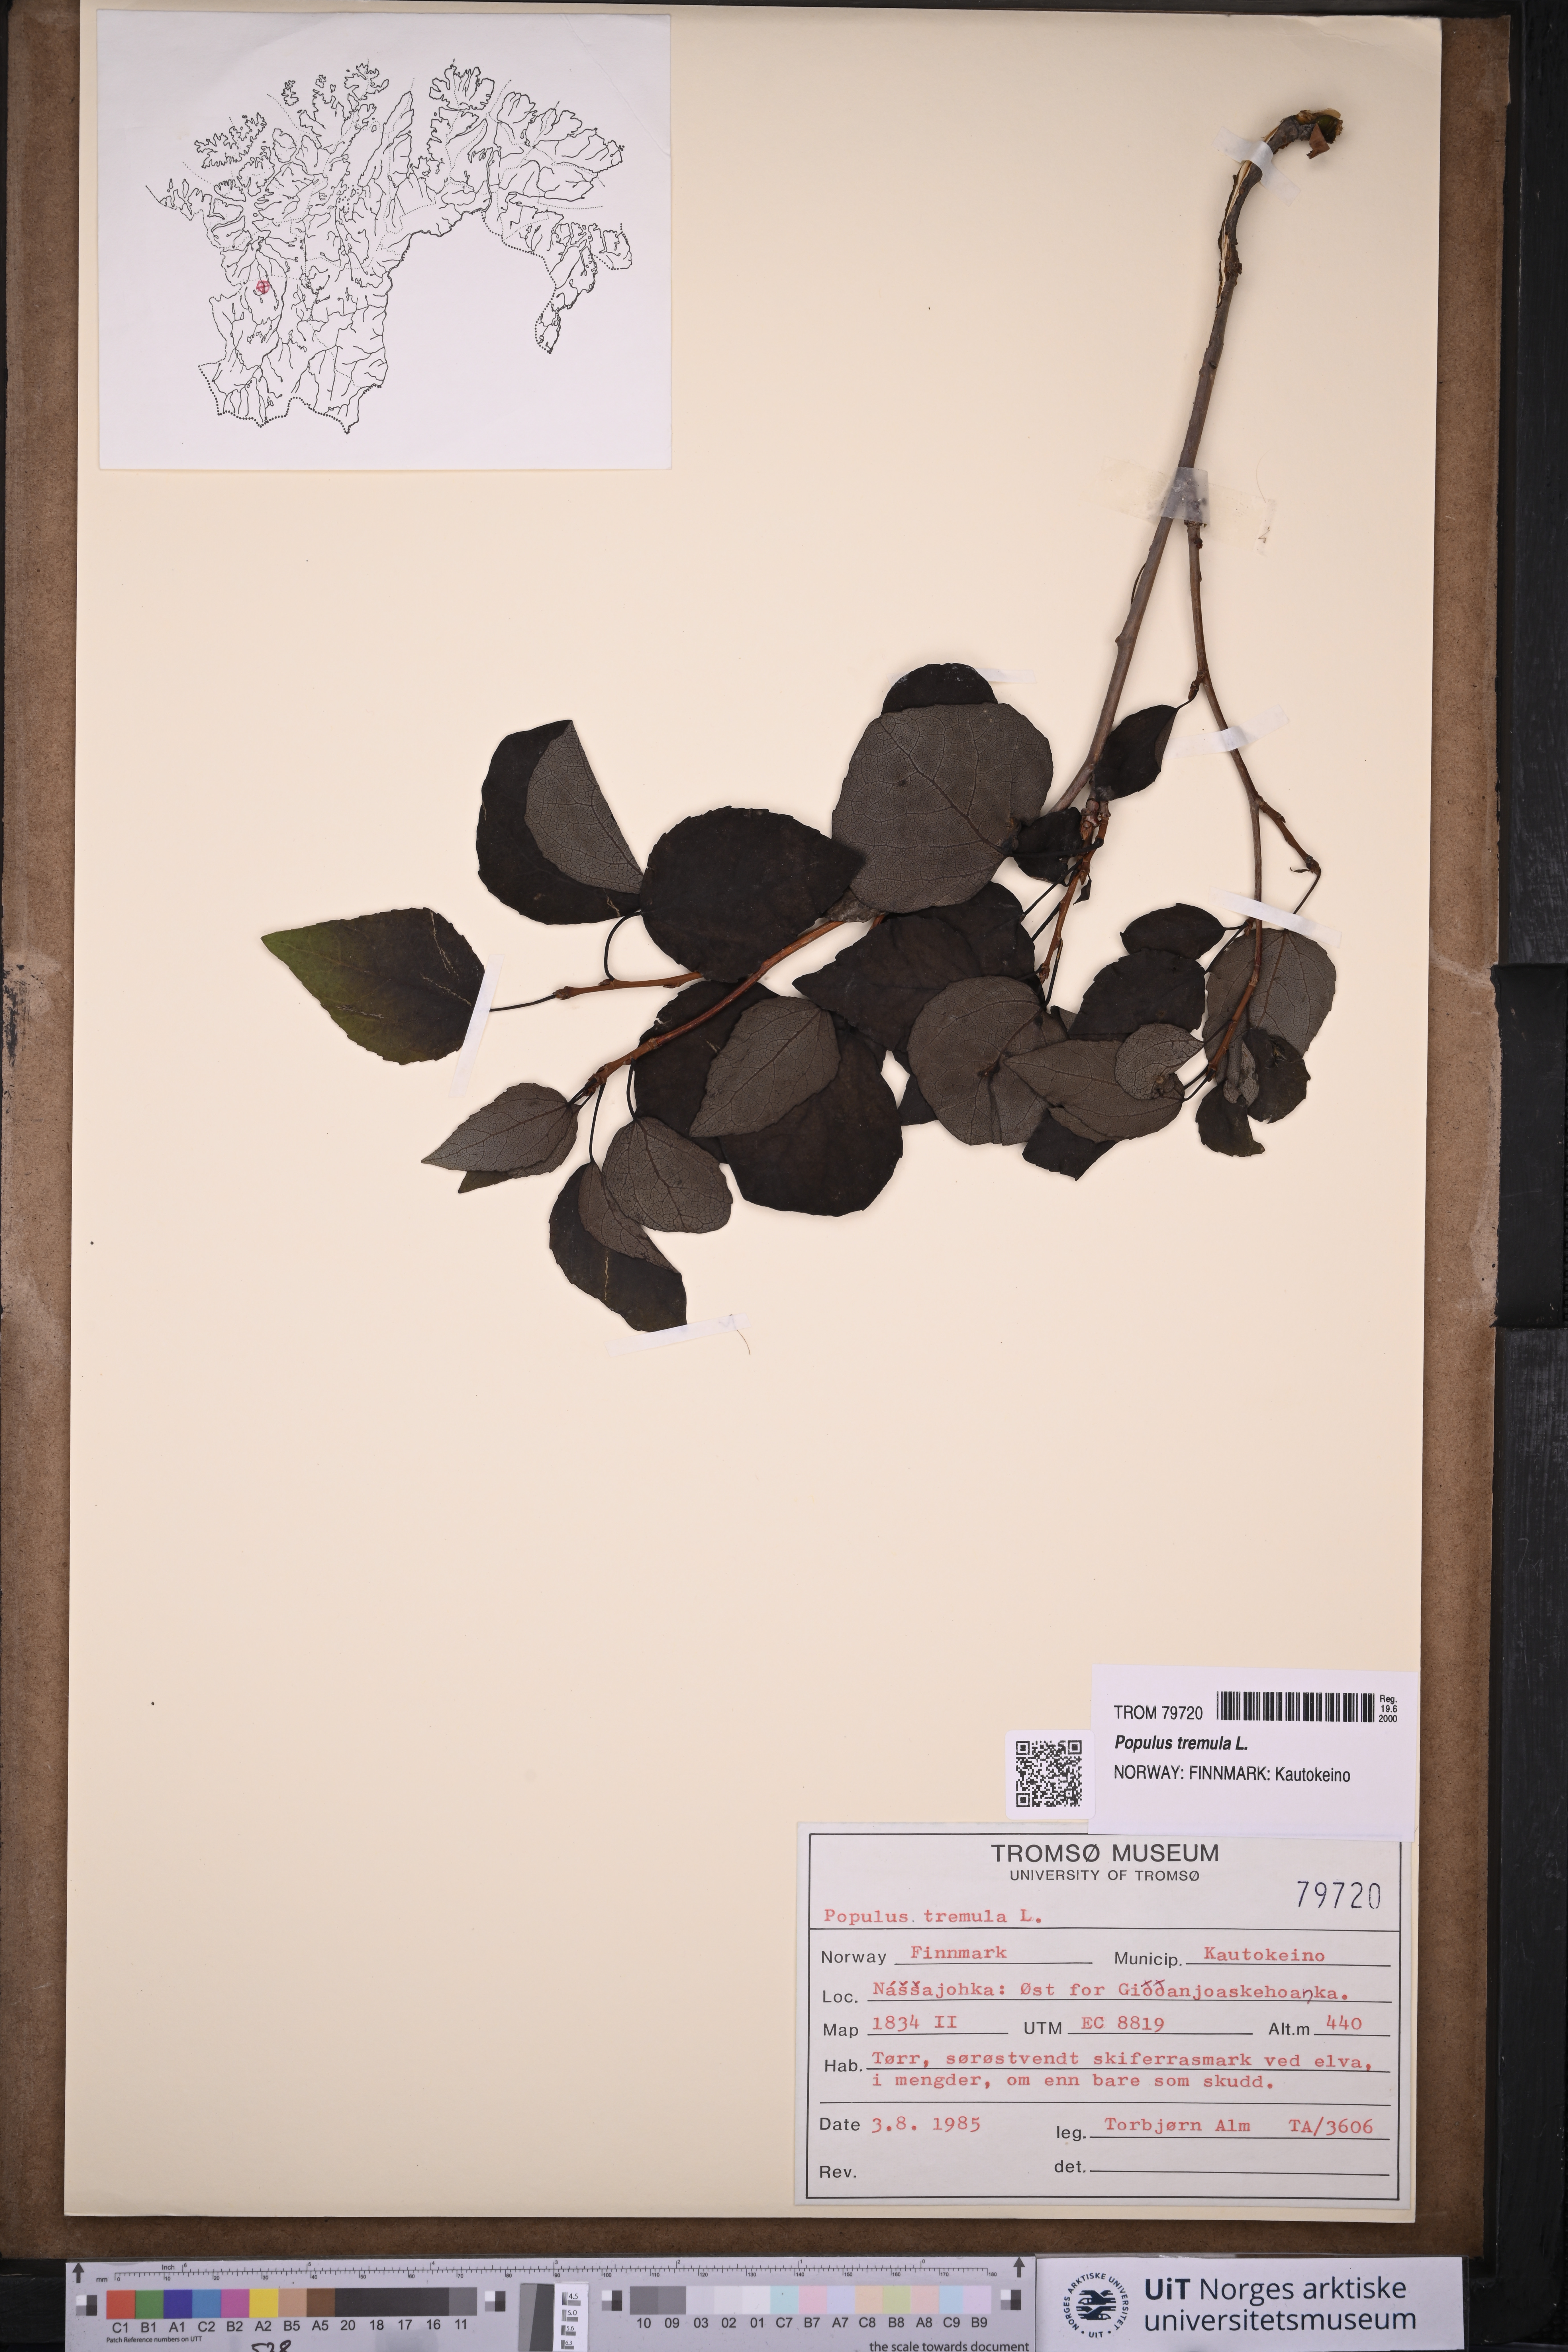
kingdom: Plantae
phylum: Tracheophyta
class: Magnoliopsida
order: Malpighiales
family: Salicaceae
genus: Populus
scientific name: Populus tremula
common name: European aspen
